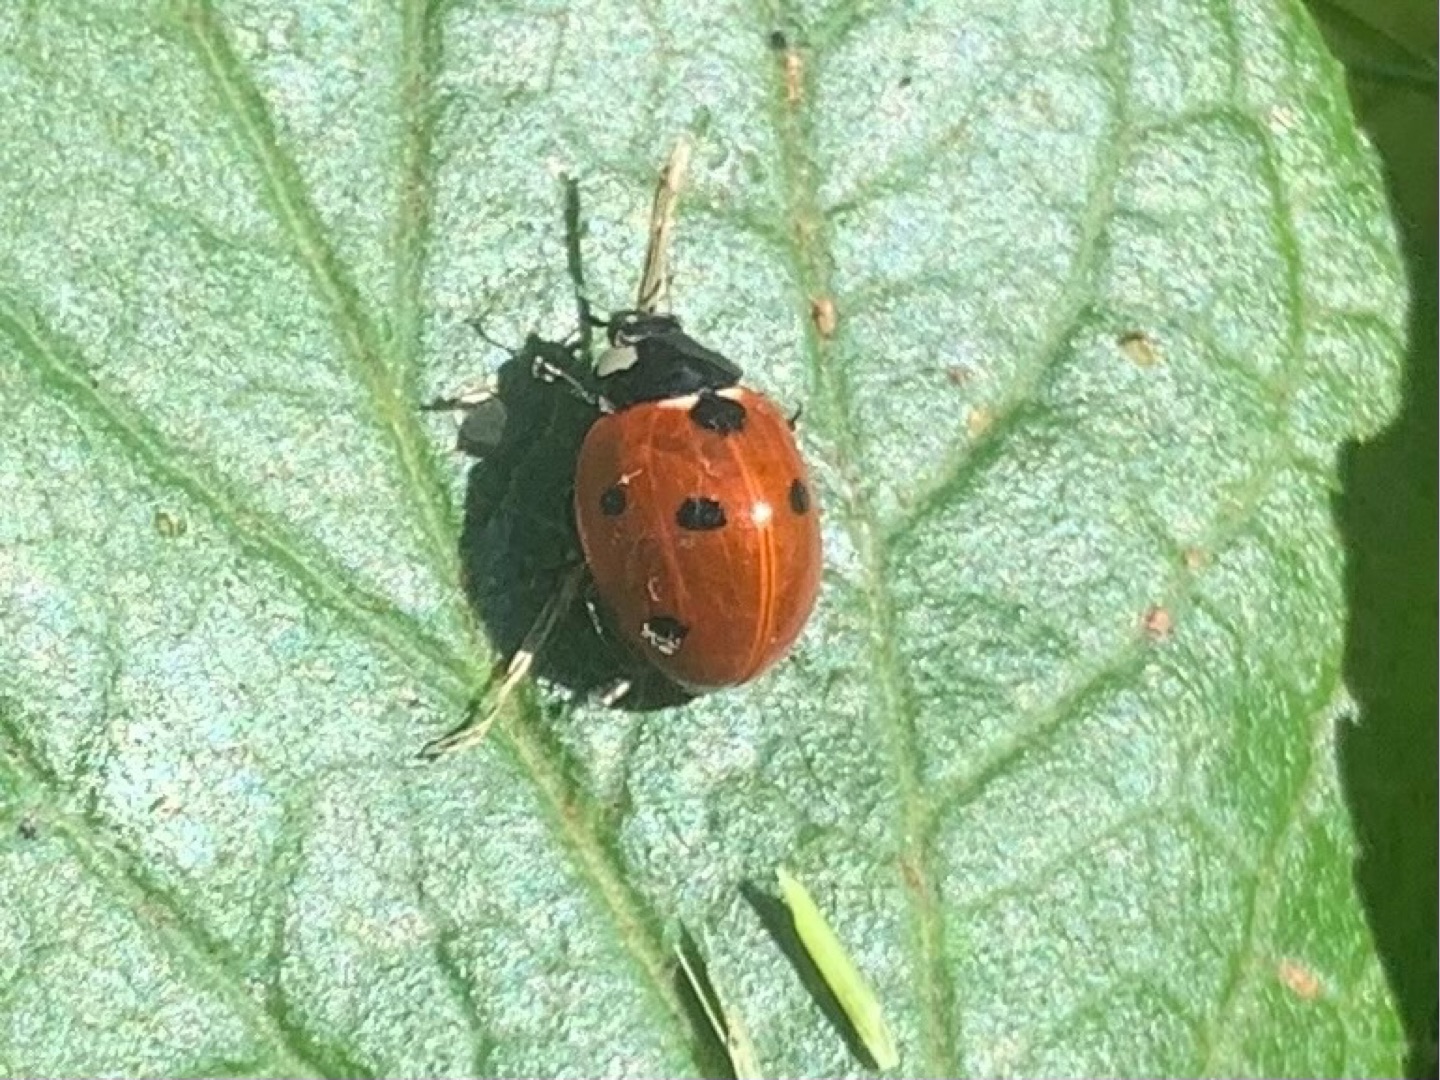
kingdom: Animalia
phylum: Arthropoda
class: Insecta
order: Coleoptera
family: Coccinellidae
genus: Coccinella
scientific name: Coccinella septempunctata
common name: Syvplettet mariehøne
